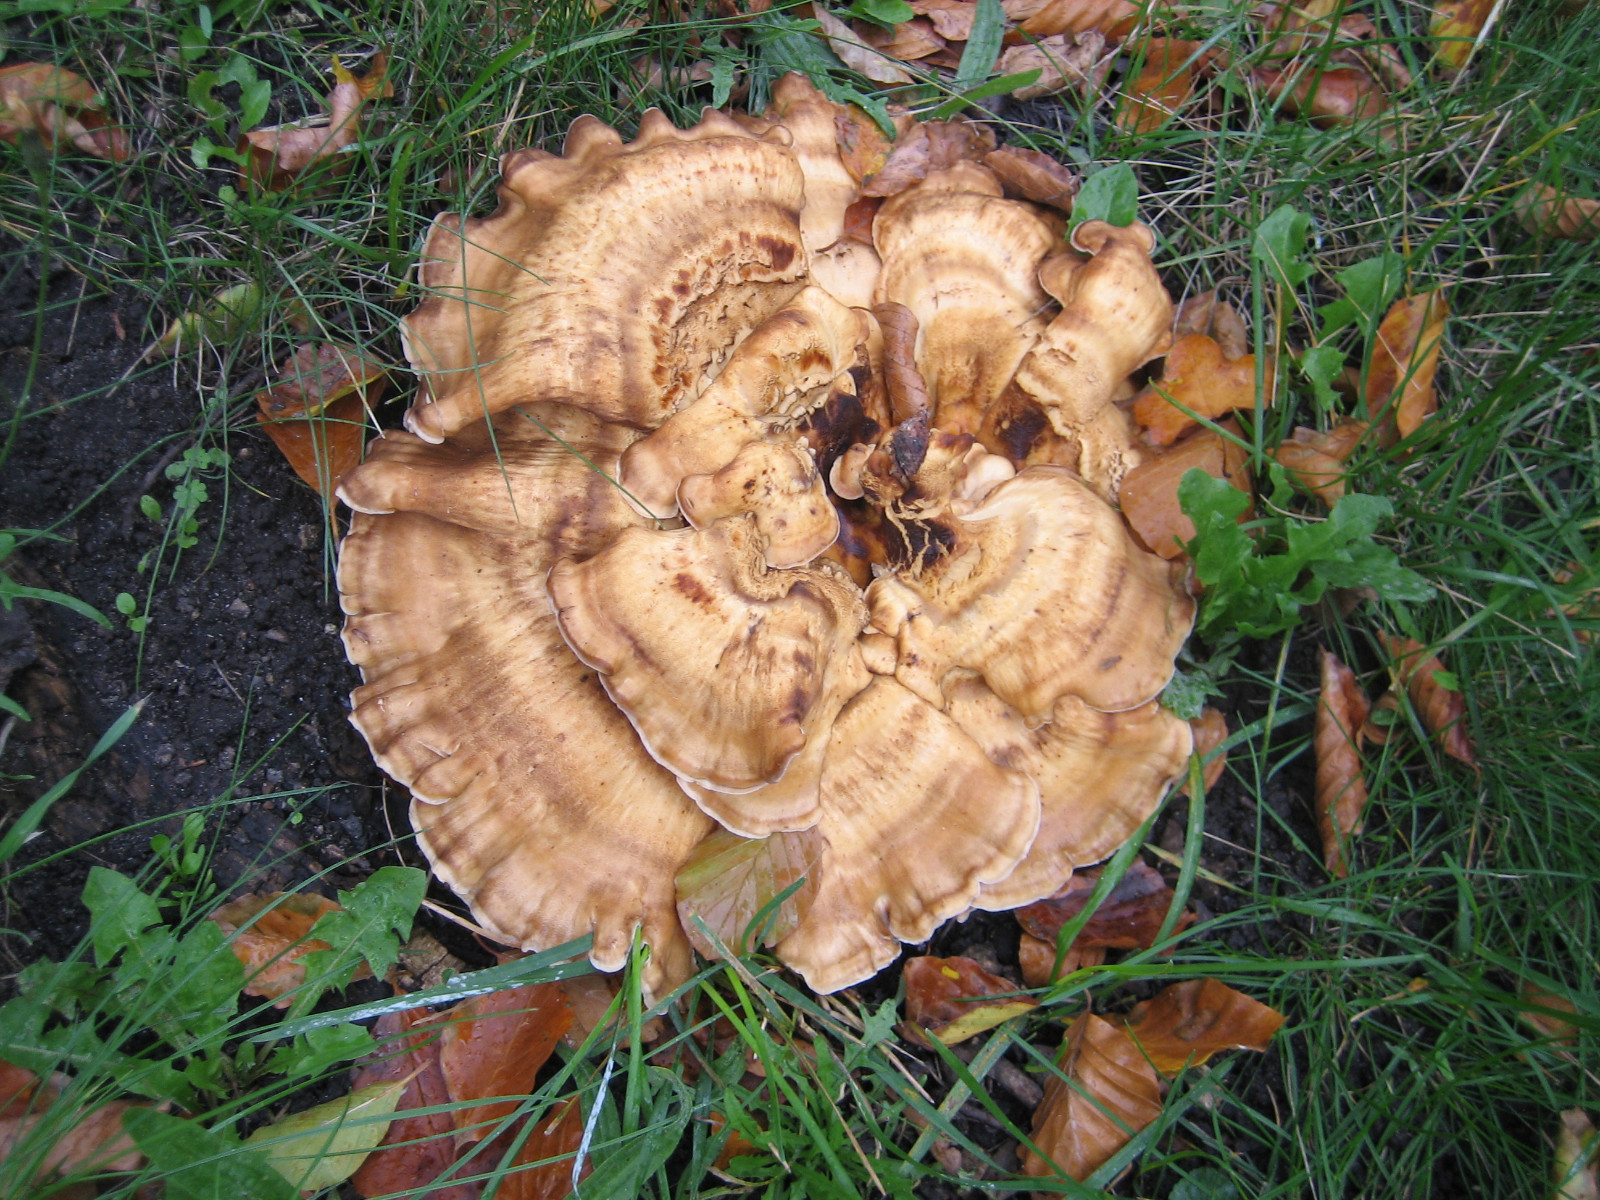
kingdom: Fungi
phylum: Basidiomycota
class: Agaricomycetes
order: Polyporales
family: Meripilaceae
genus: Meripilus
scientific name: Meripilus giganteus
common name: kæmpeporesvamp
